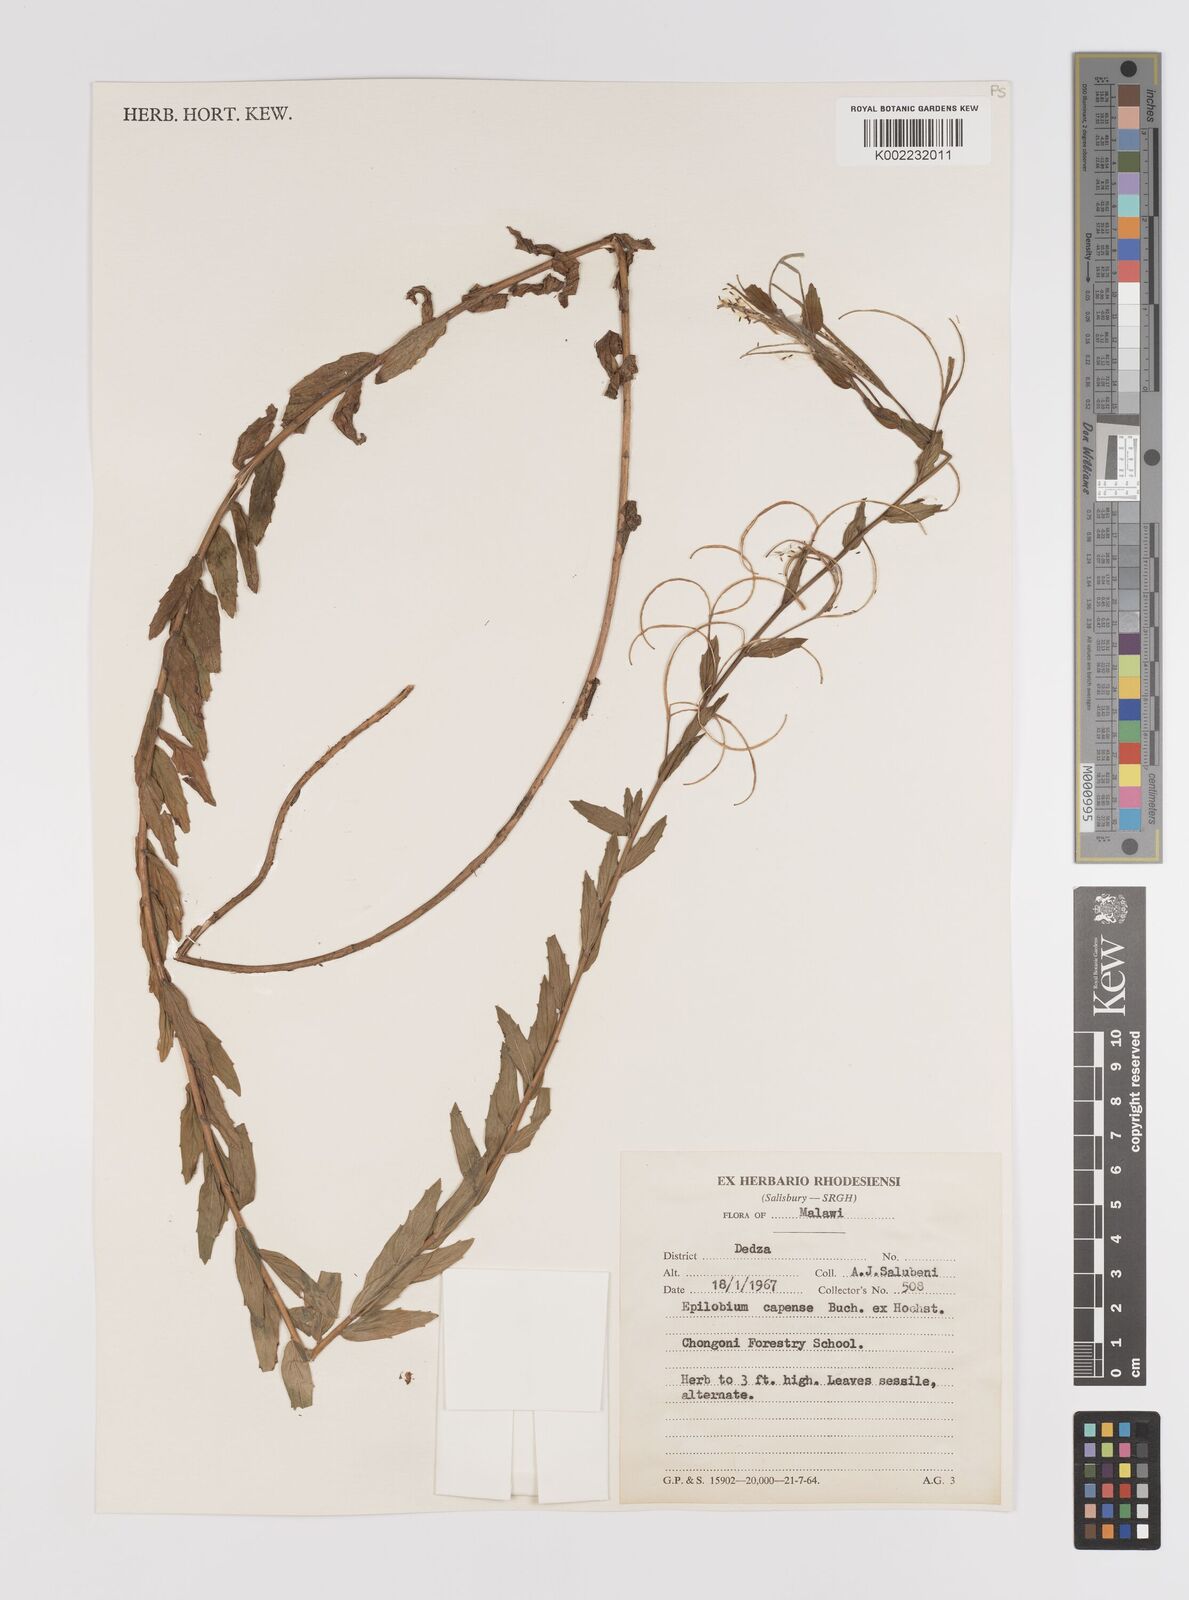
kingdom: Plantae
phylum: Tracheophyta
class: Magnoliopsida
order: Myrtales
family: Onagraceae
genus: Epilobium
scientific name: Epilobium capense
